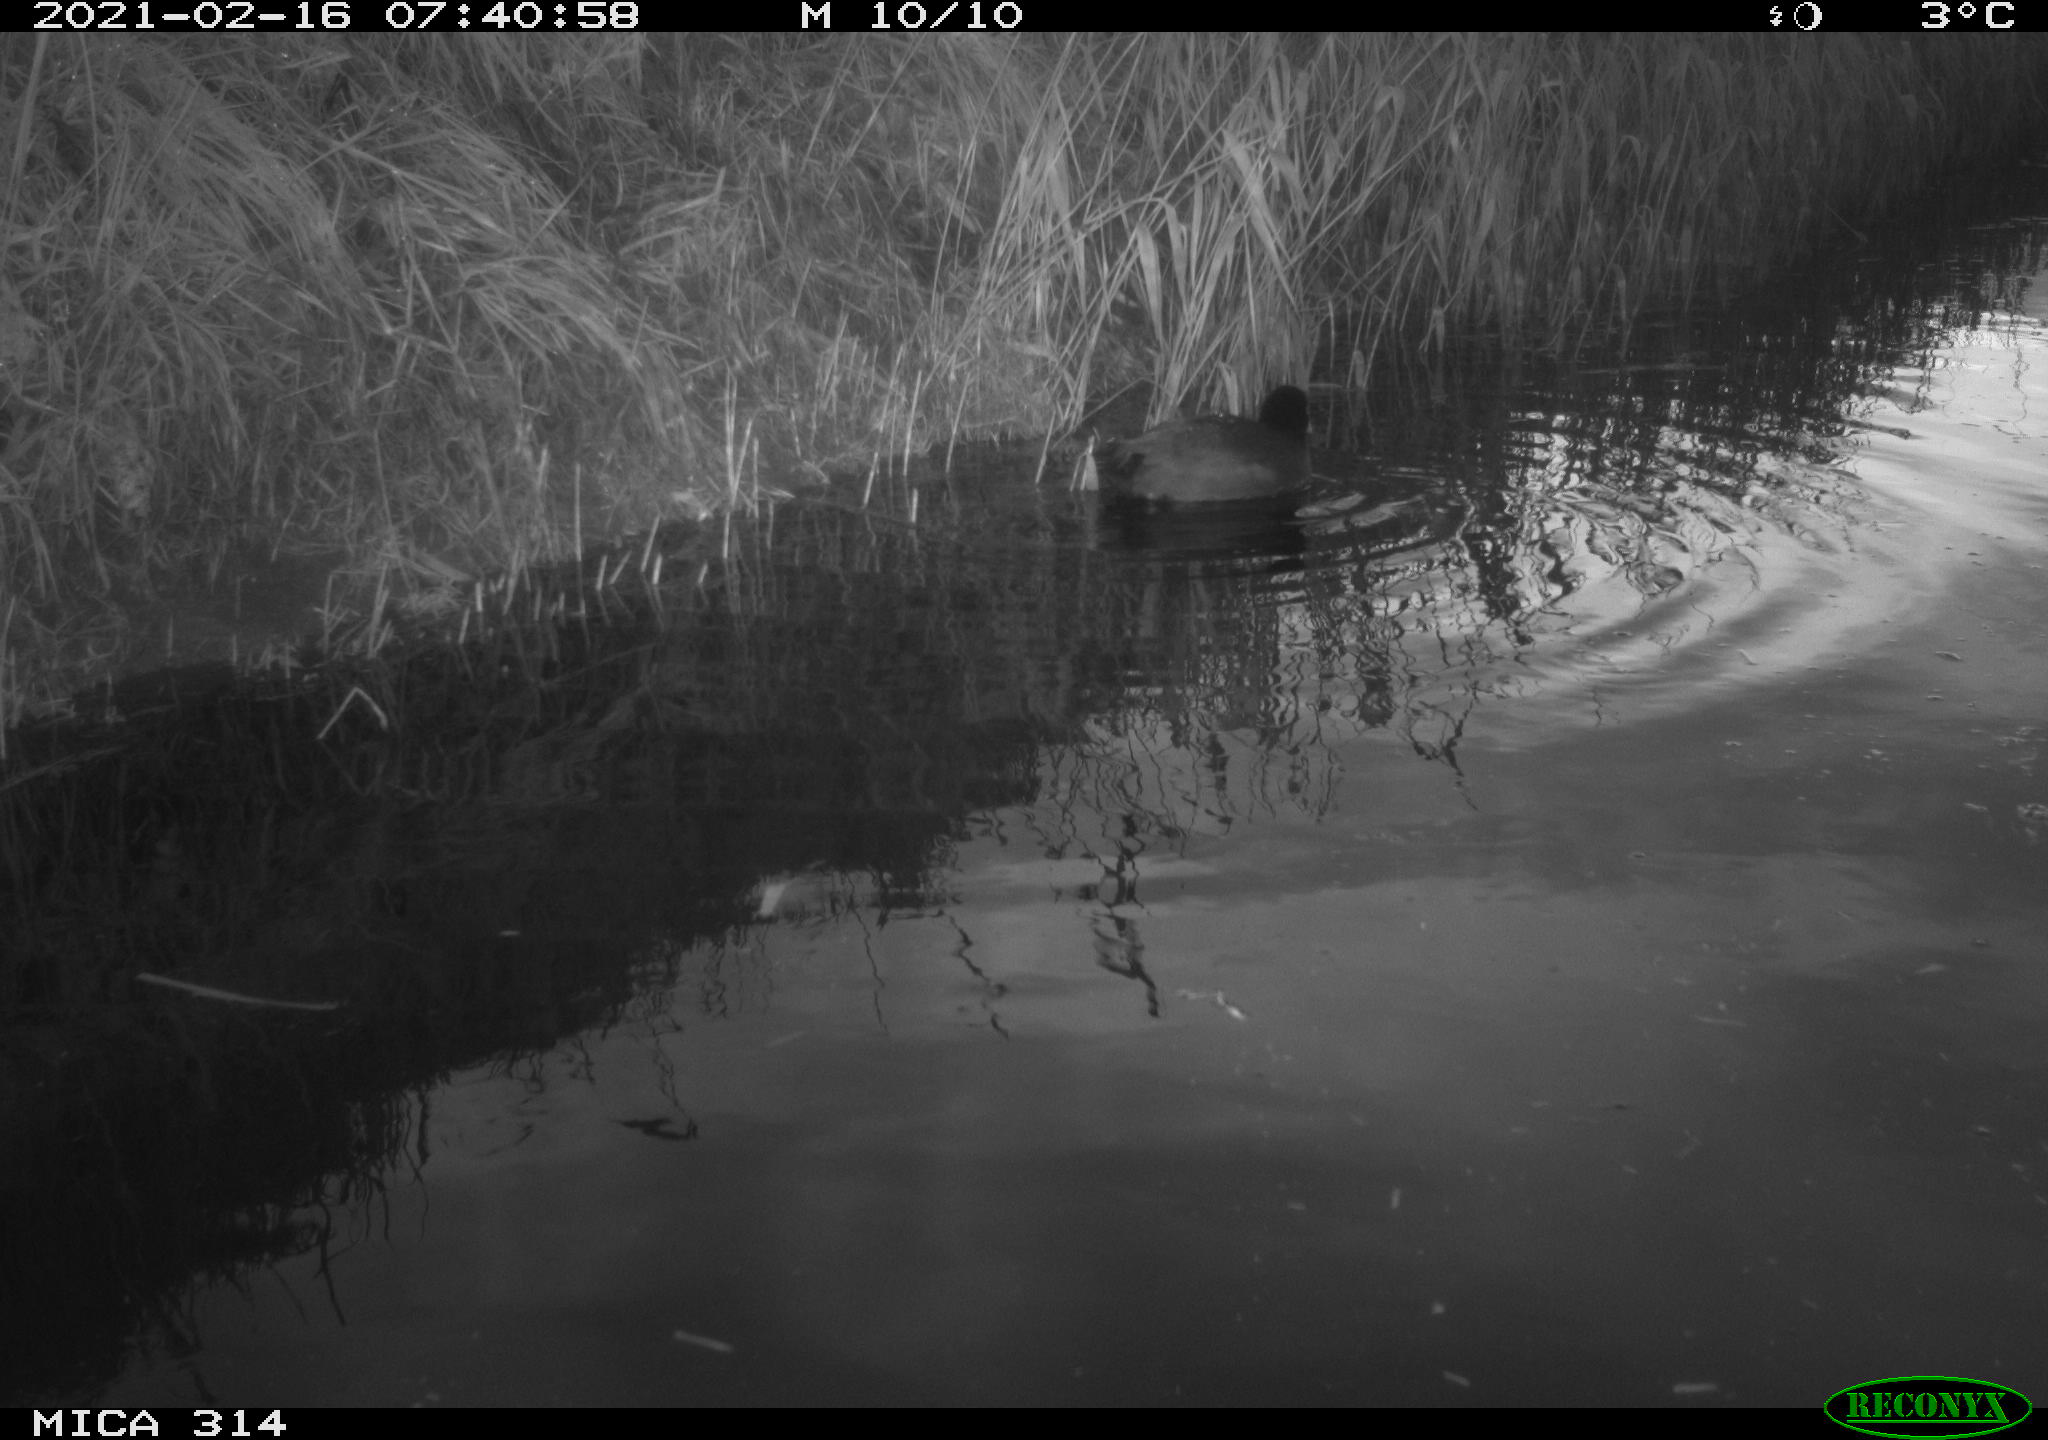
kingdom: Animalia
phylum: Chordata
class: Aves
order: Gruiformes
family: Rallidae
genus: Fulica
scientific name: Fulica atra
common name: Eurasian coot
